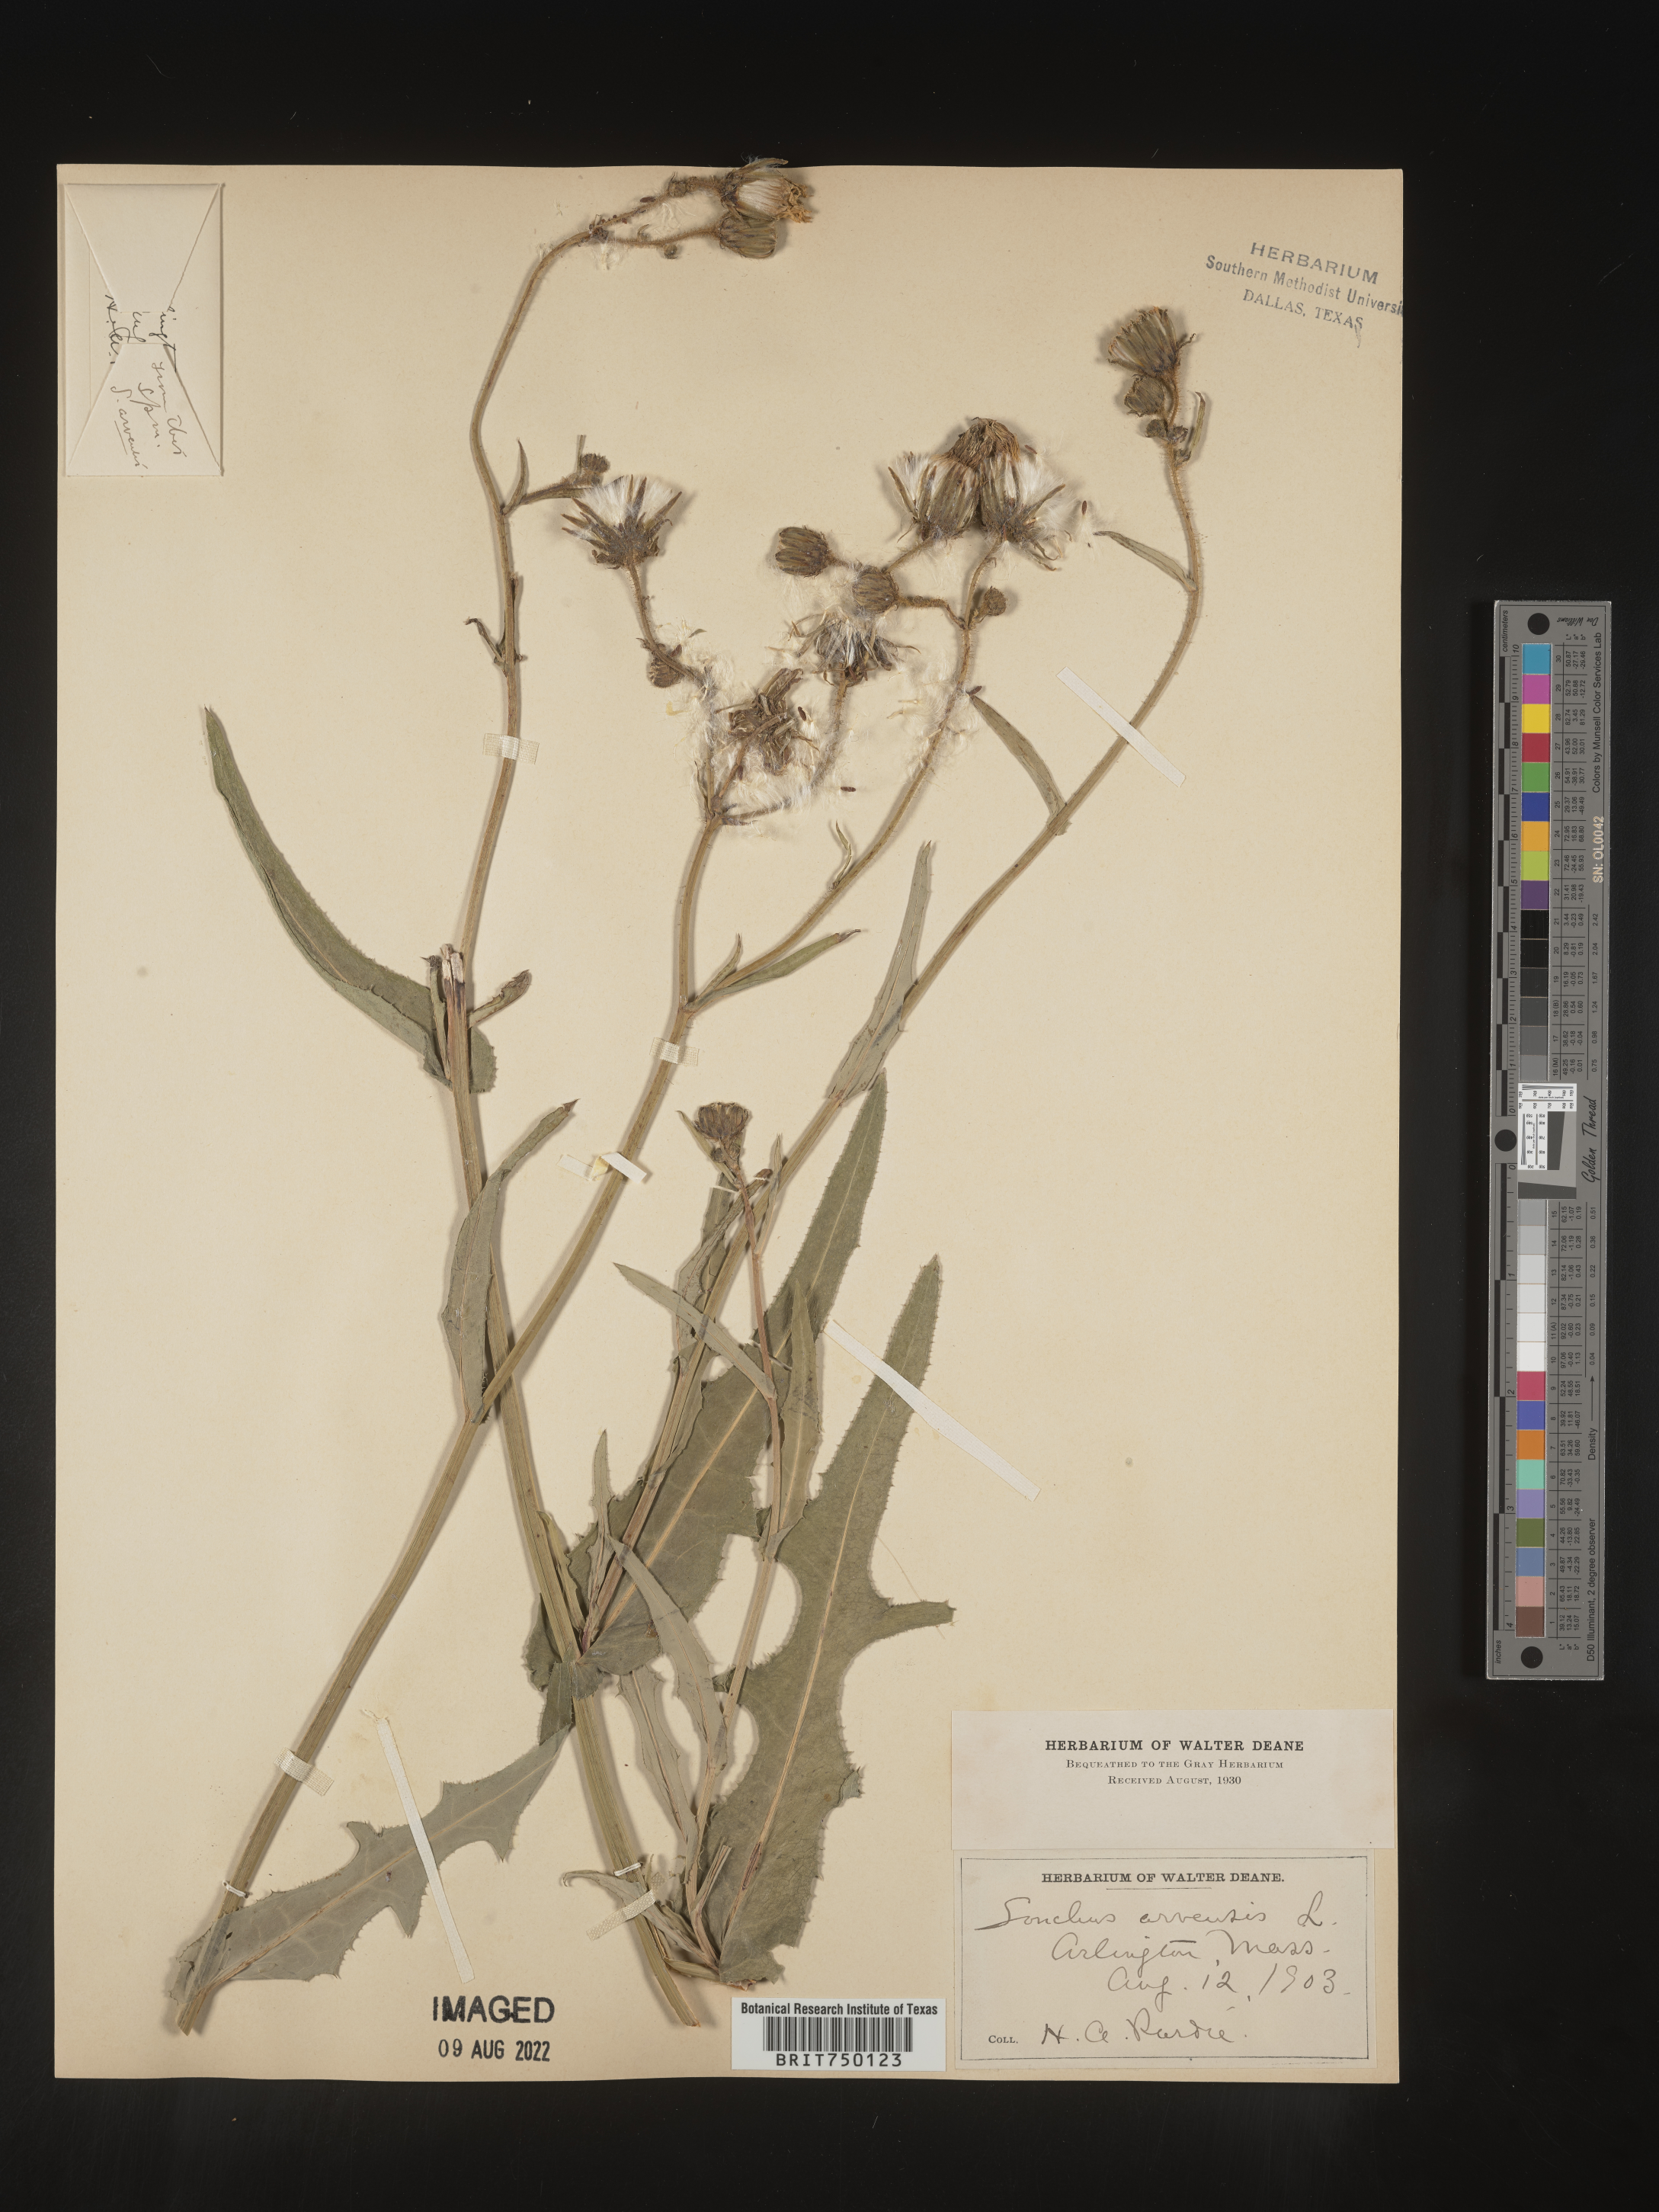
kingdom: Plantae
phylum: Tracheophyta
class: Magnoliopsida
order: Asterales
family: Asteraceae
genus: Sonchus
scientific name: Sonchus arvensis
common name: Perennial sow-thistle
